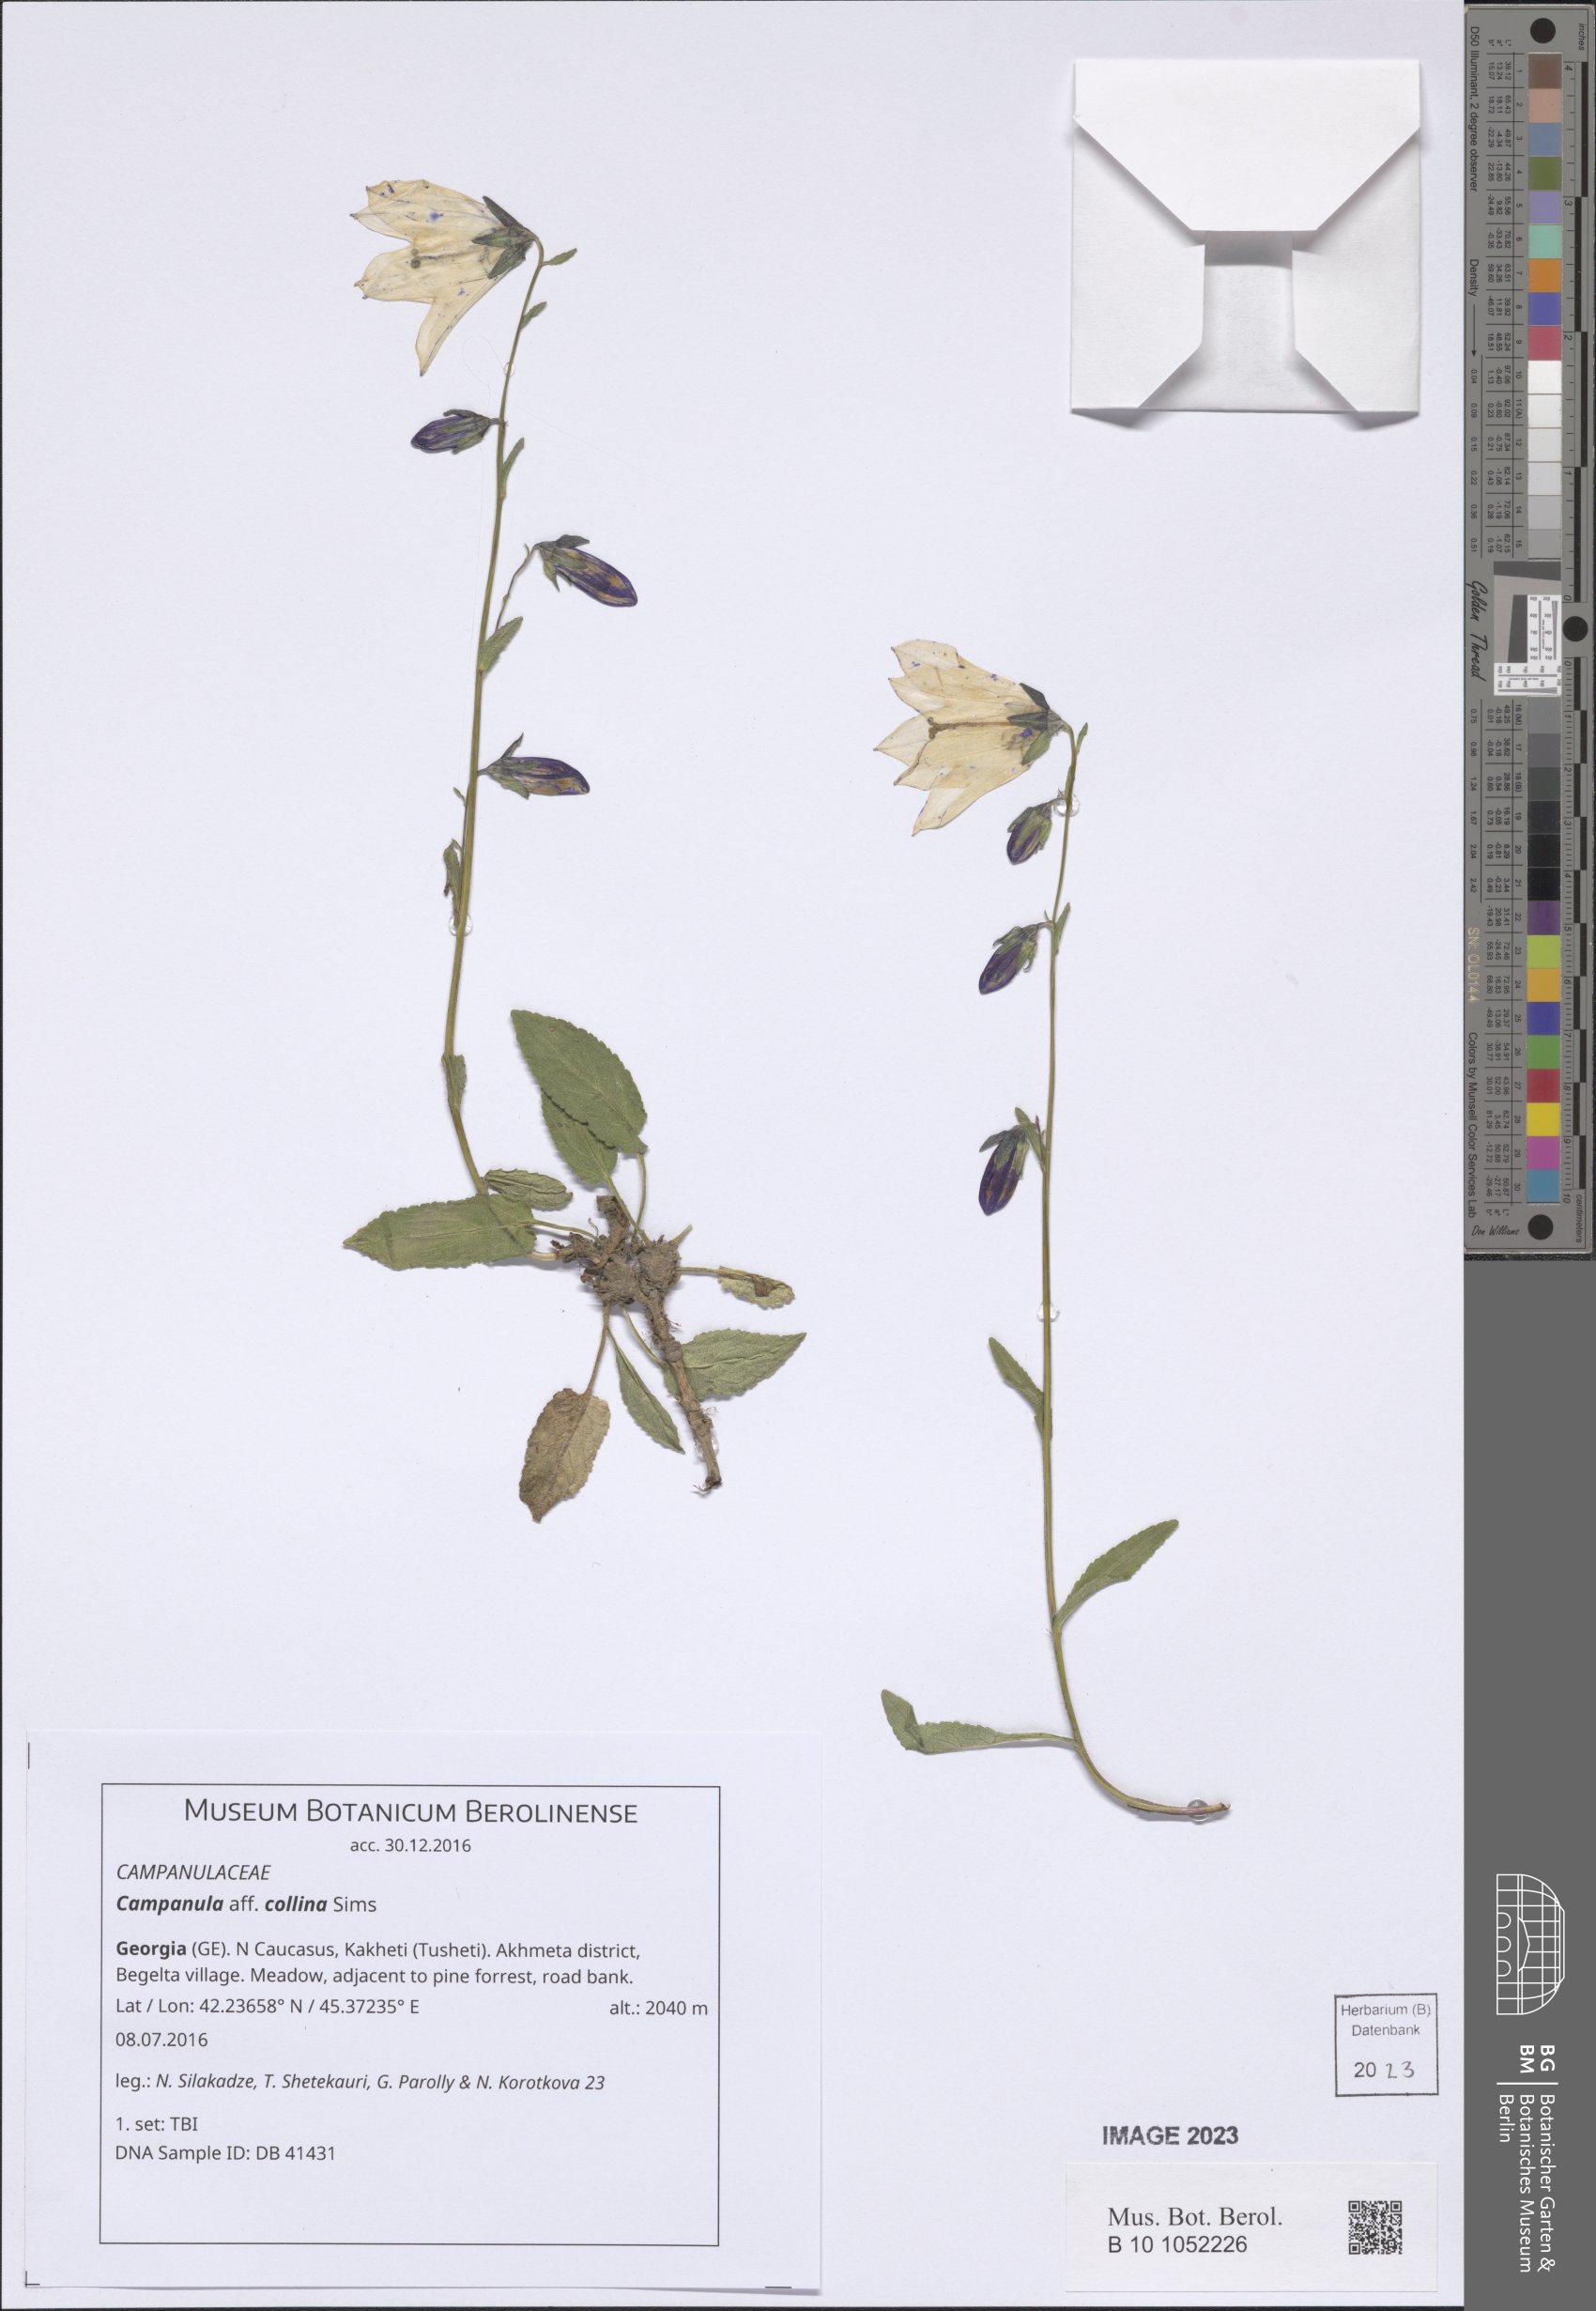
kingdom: Plantae
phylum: Tracheophyta
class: Magnoliopsida
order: Asterales
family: Campanulaceae
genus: Campanula
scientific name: Campanula collina
